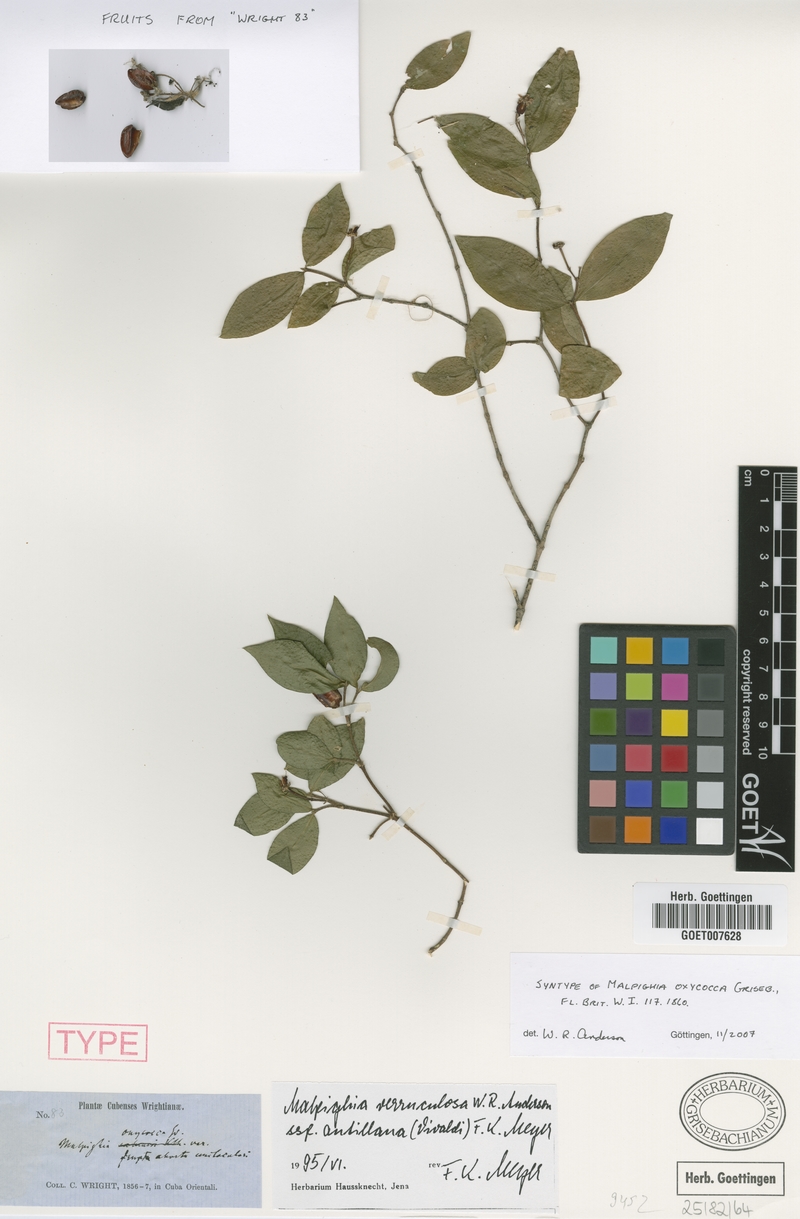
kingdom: Plantae
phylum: Tracheophyta
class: Magnoliopsida
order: Malpighiales
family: Malpighiaceae
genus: Malpighia
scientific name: Malpighia verruculosa
